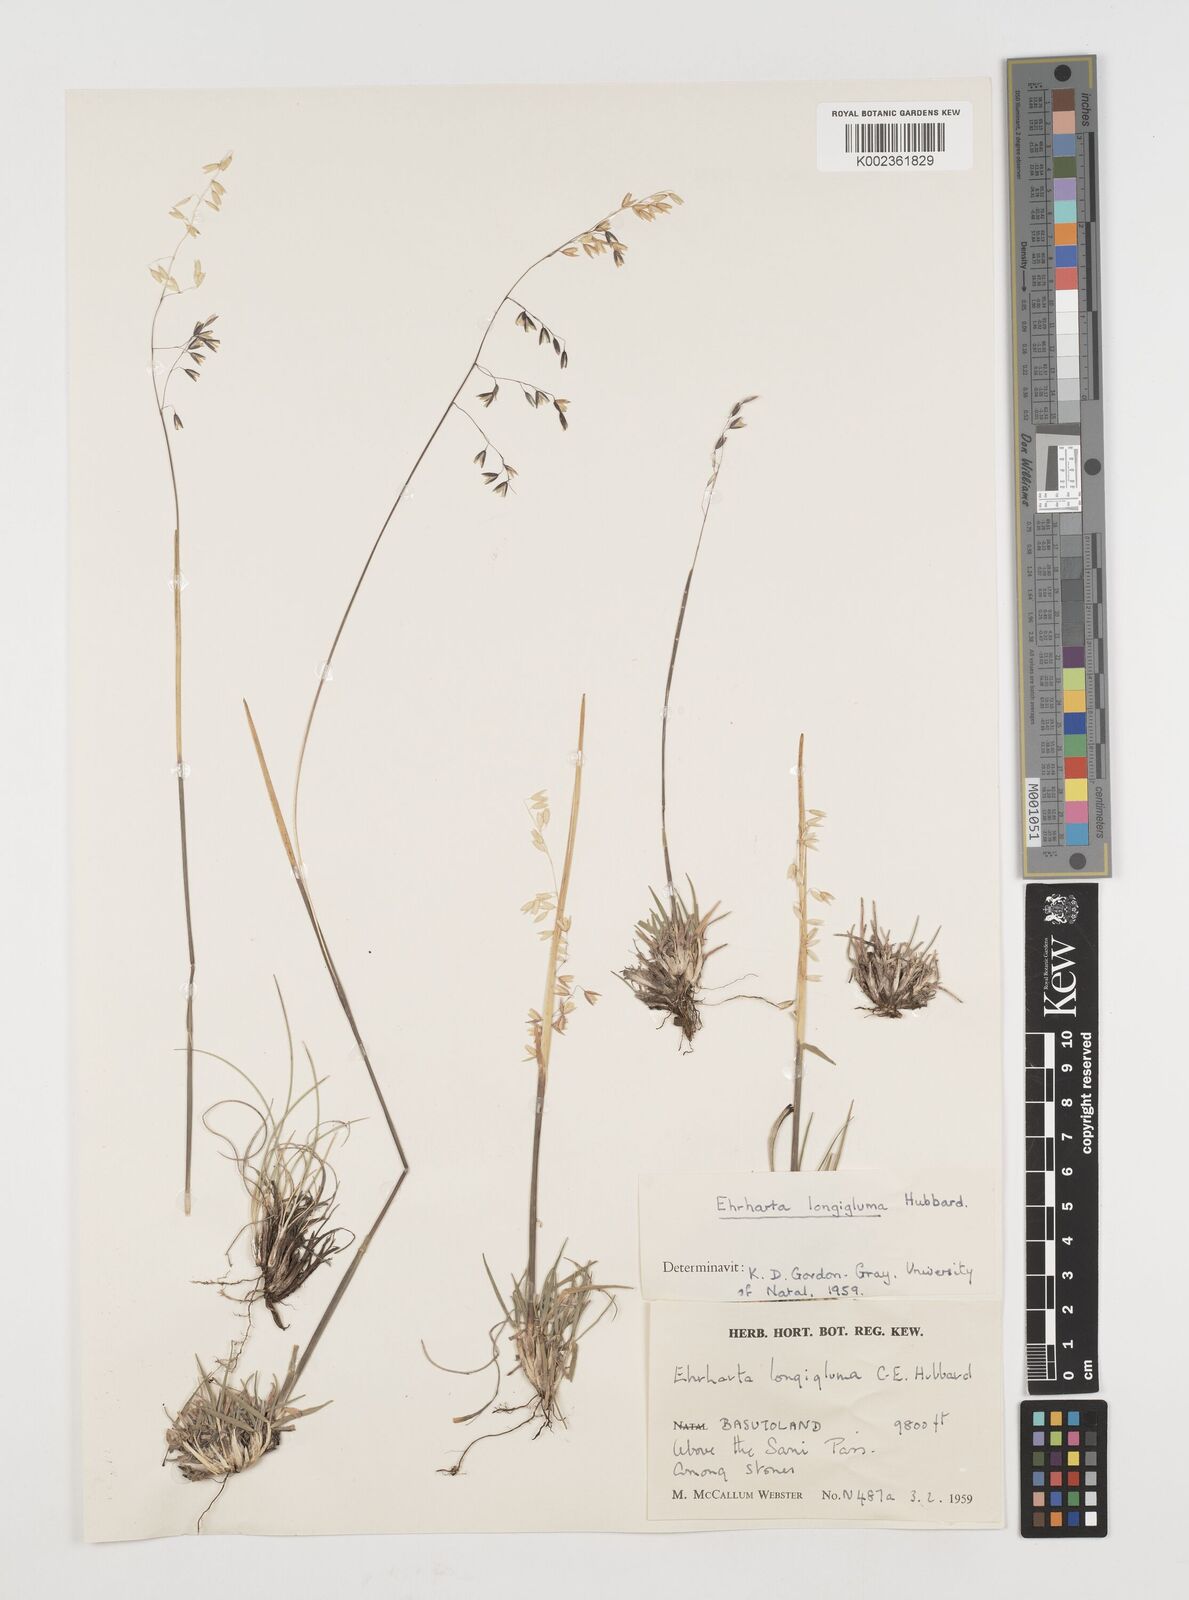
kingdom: Plantae
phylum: Tracheophyta
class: Liliopsida
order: Poales
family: Poaceae
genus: Ehrharta
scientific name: Ehrharta longigluma
